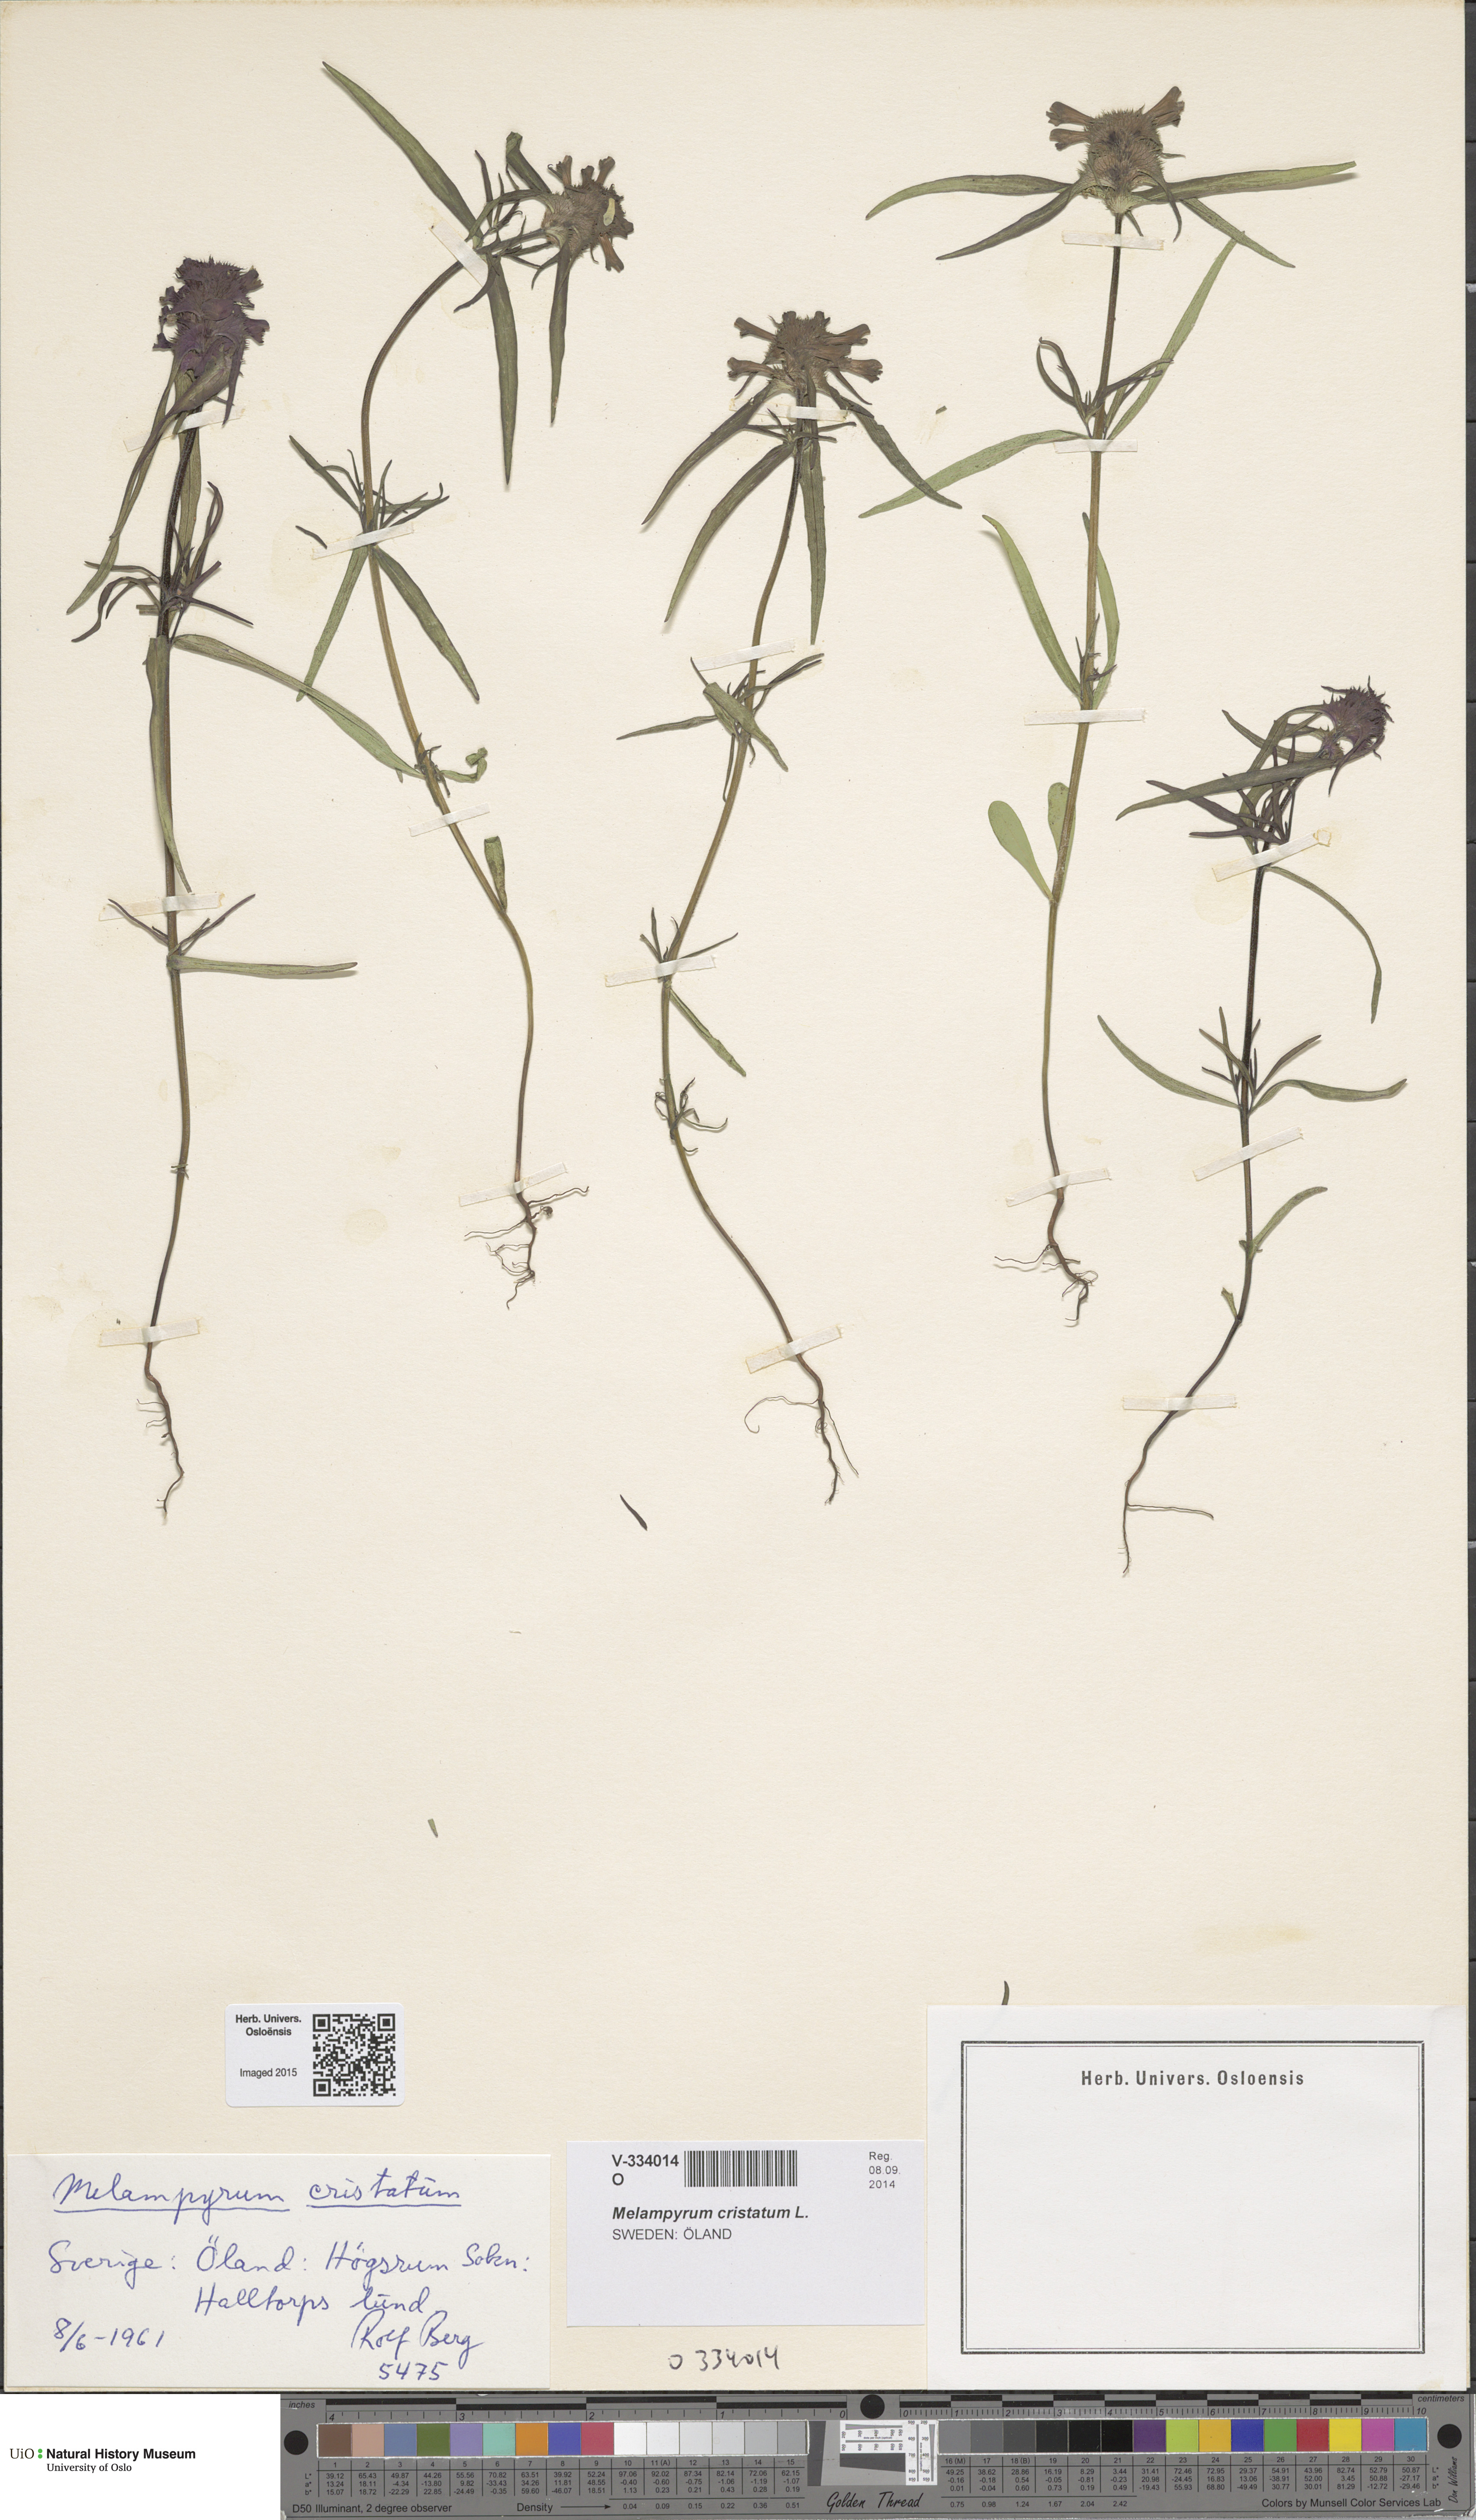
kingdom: Plantae
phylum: Tracheophyta
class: Magnoliopsida
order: Lamiales
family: Orobanchaceae
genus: Melampyrum
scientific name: Melampyrum cristatum
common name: Crested cow-wheat
